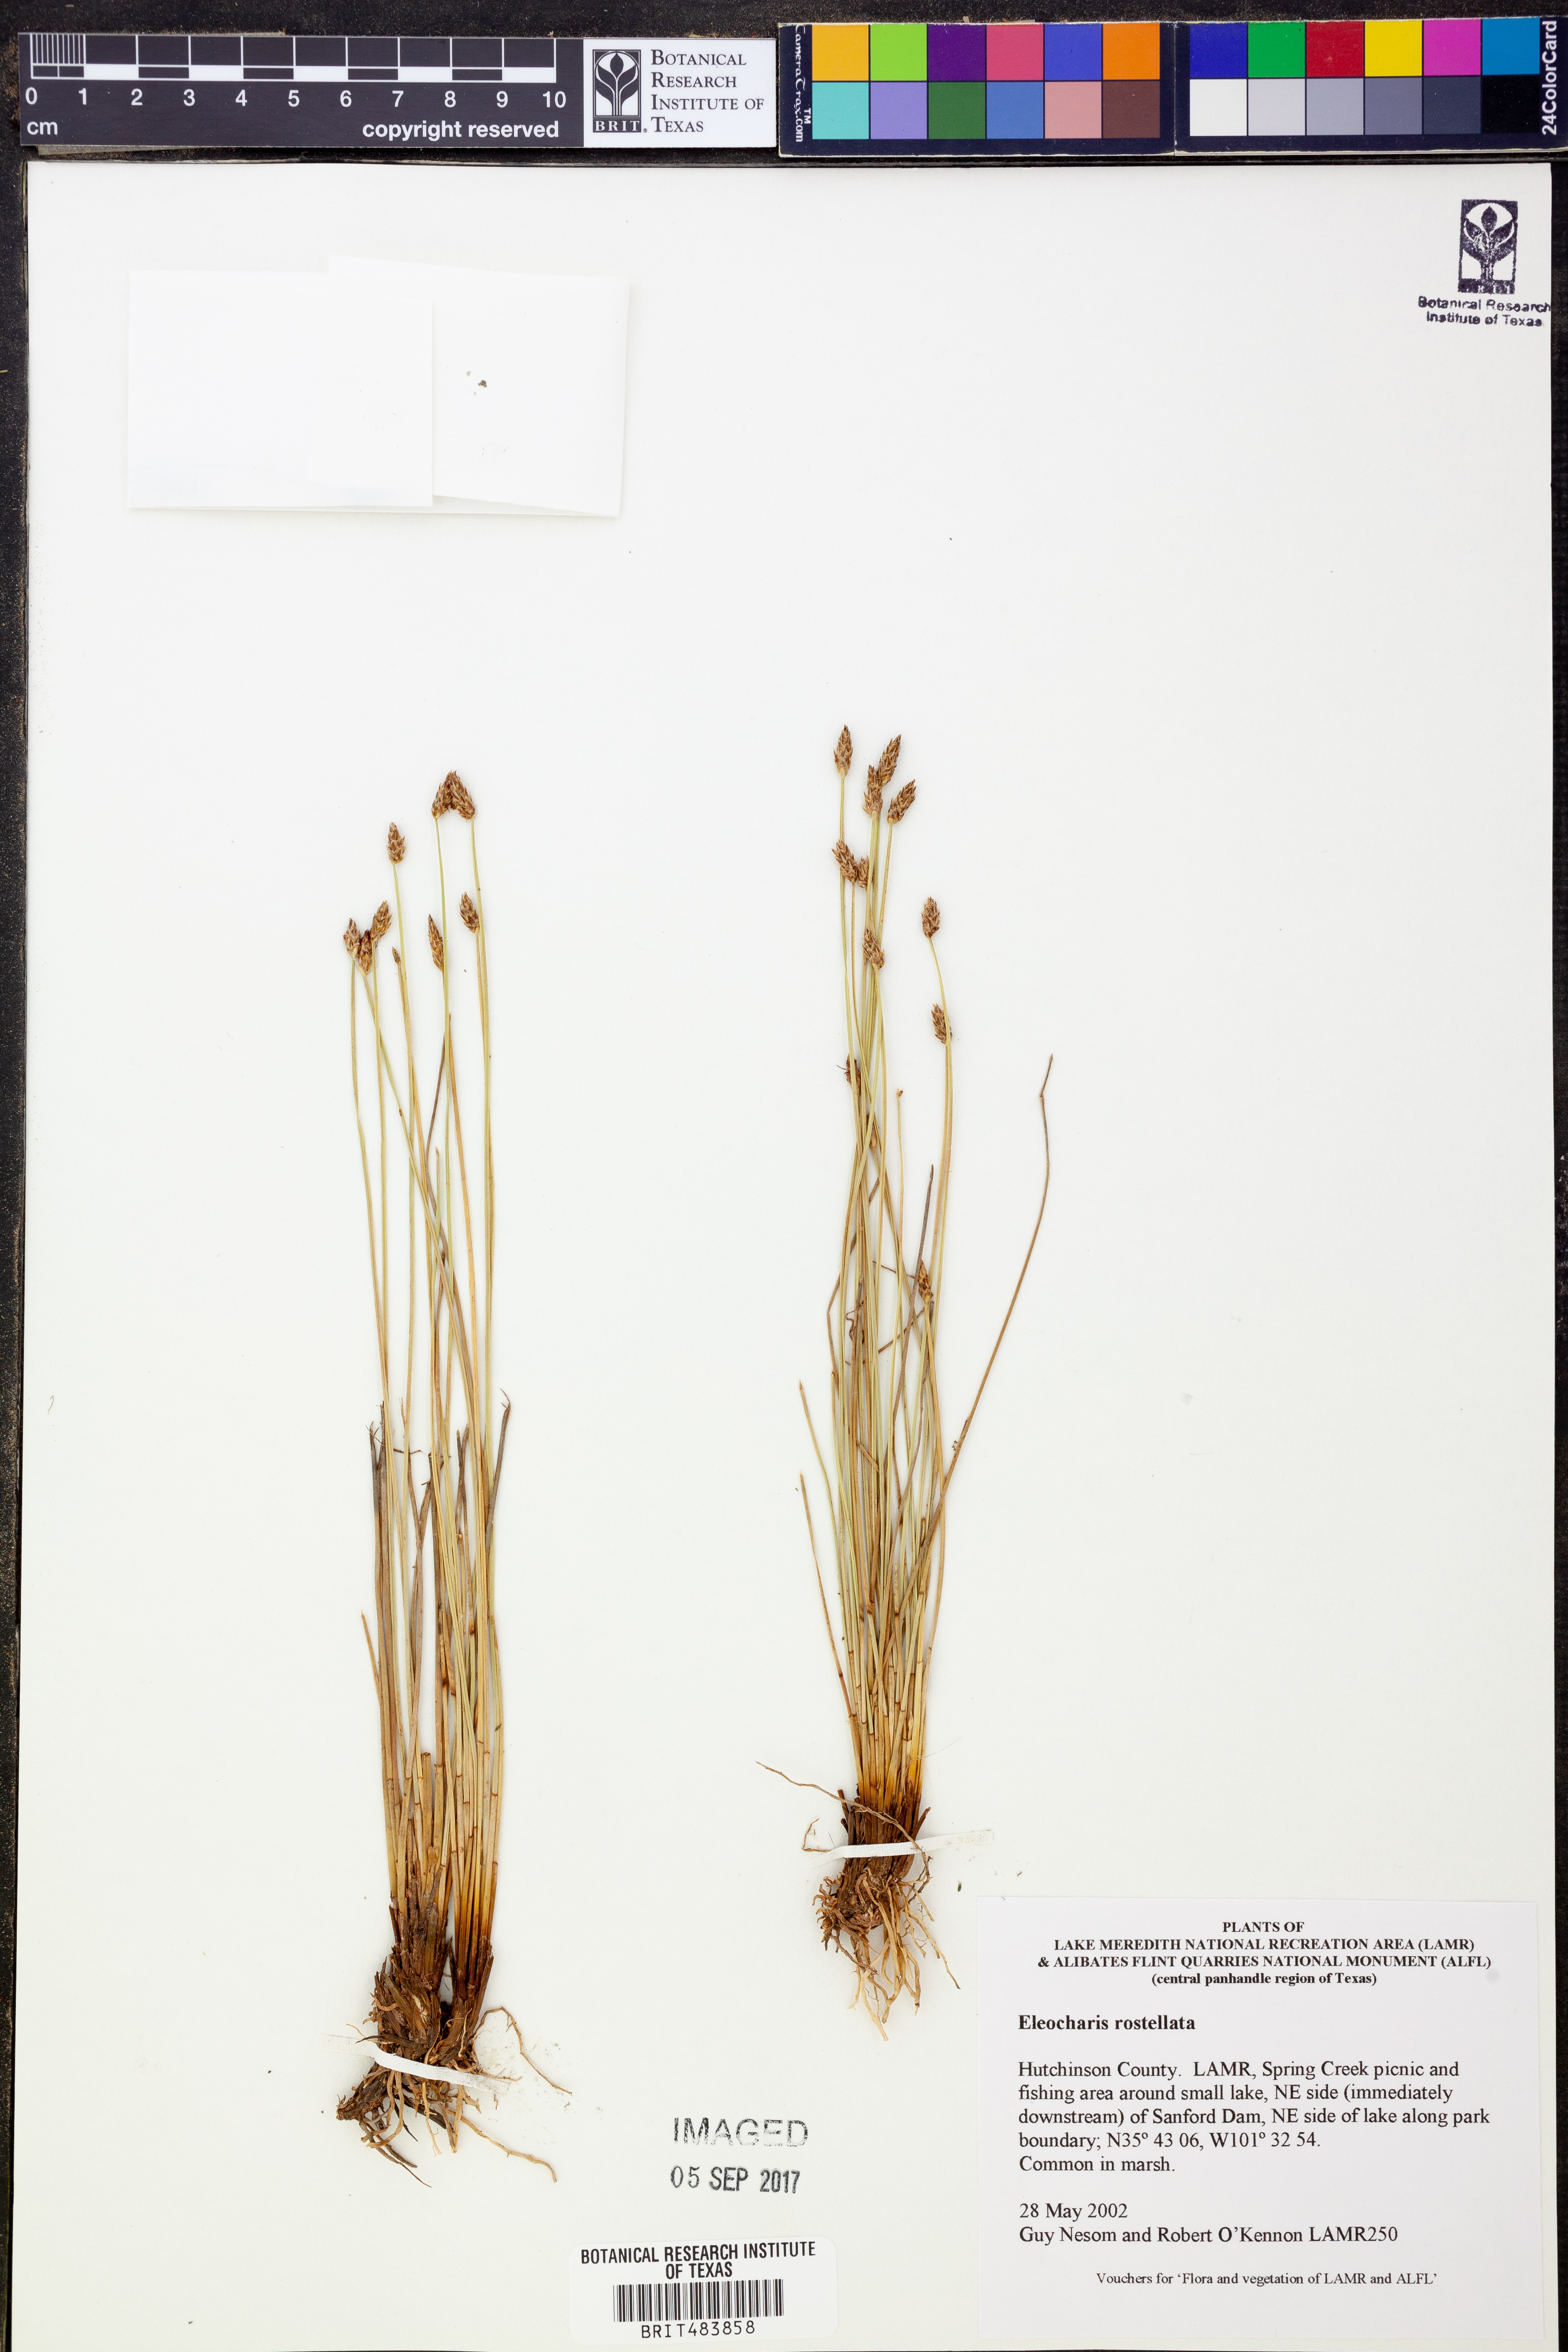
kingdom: Plantae
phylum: Tracheophyta
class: Liliopsida
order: Poales
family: Cyperaceae
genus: Eleocharis
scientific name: Eleocharis rostellata
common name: Walking sedge
